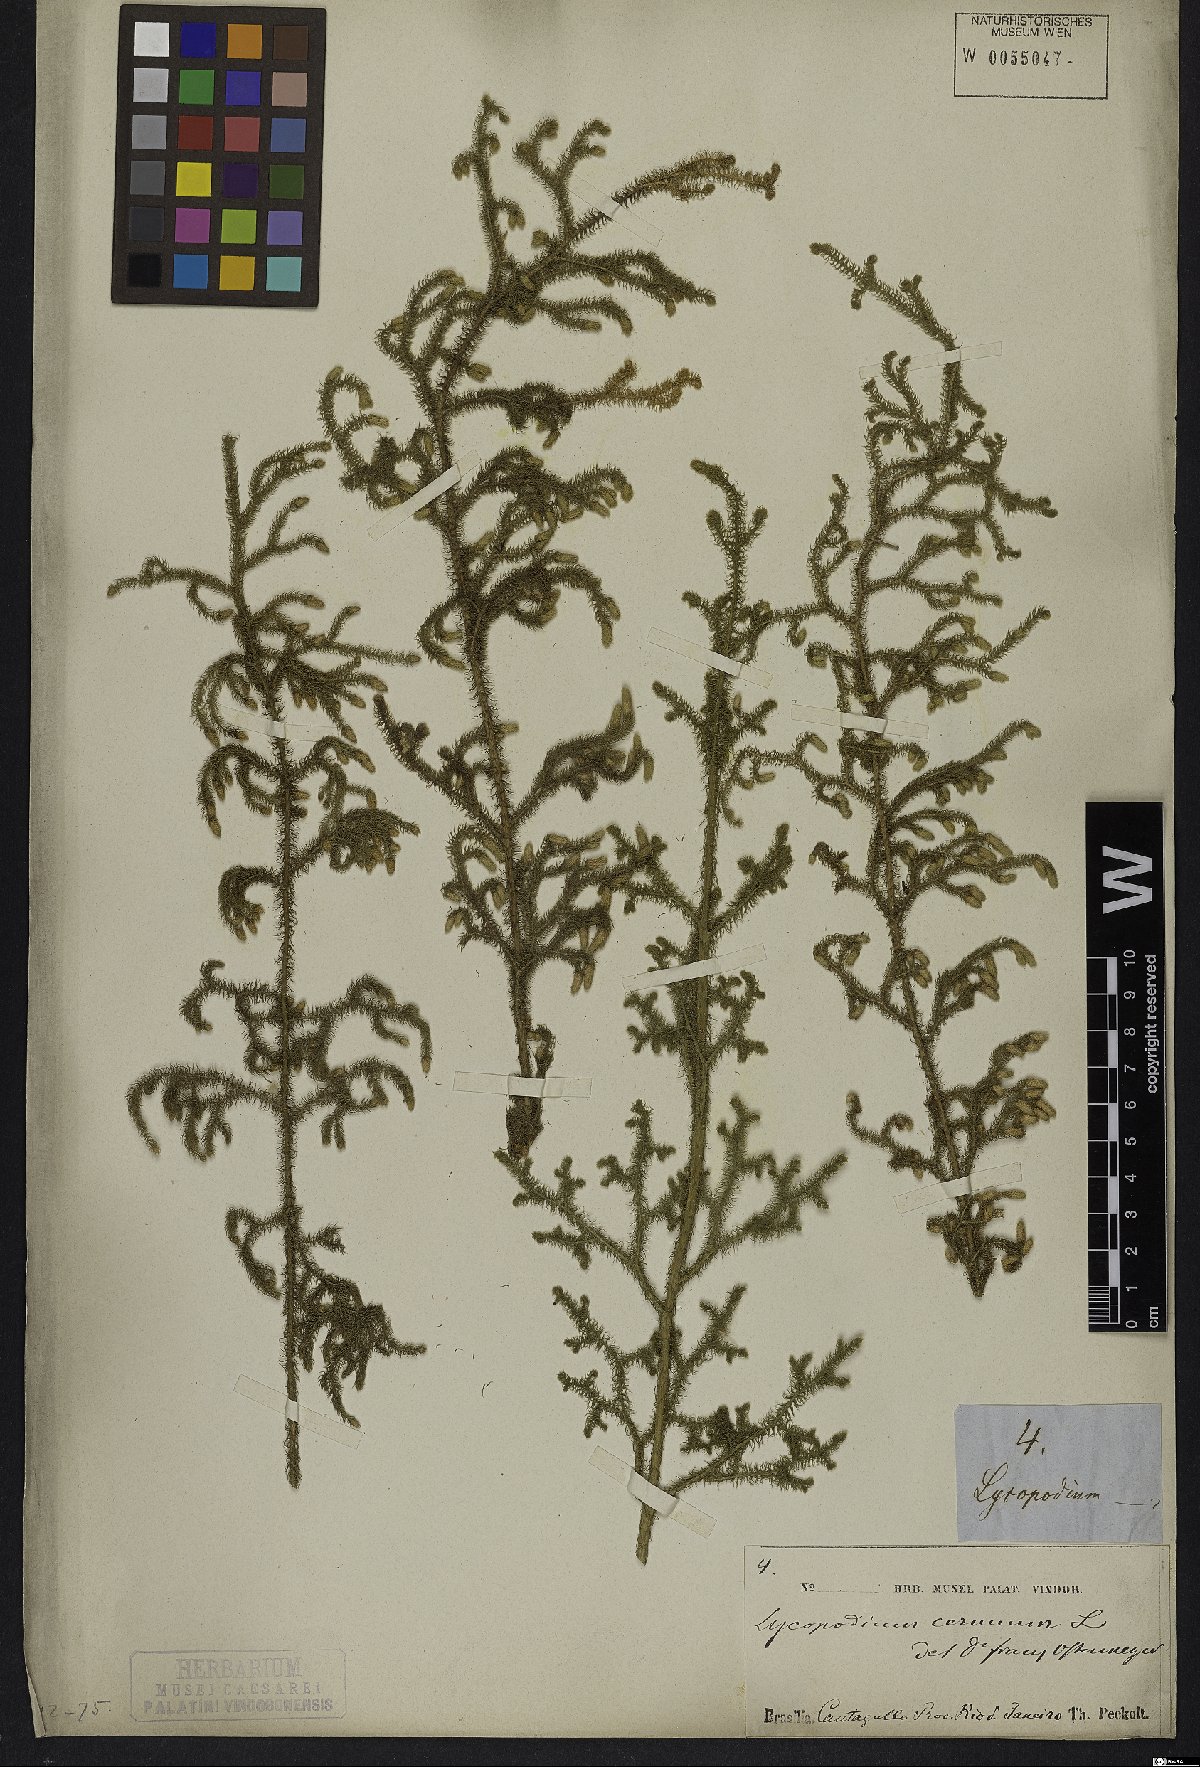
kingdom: Plantae
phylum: Tracheophyta
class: Lycopodiopsida
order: Lycopodiales
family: Lycopodiaceae
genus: Palhinhaea
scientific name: Palhinhaea cernua
